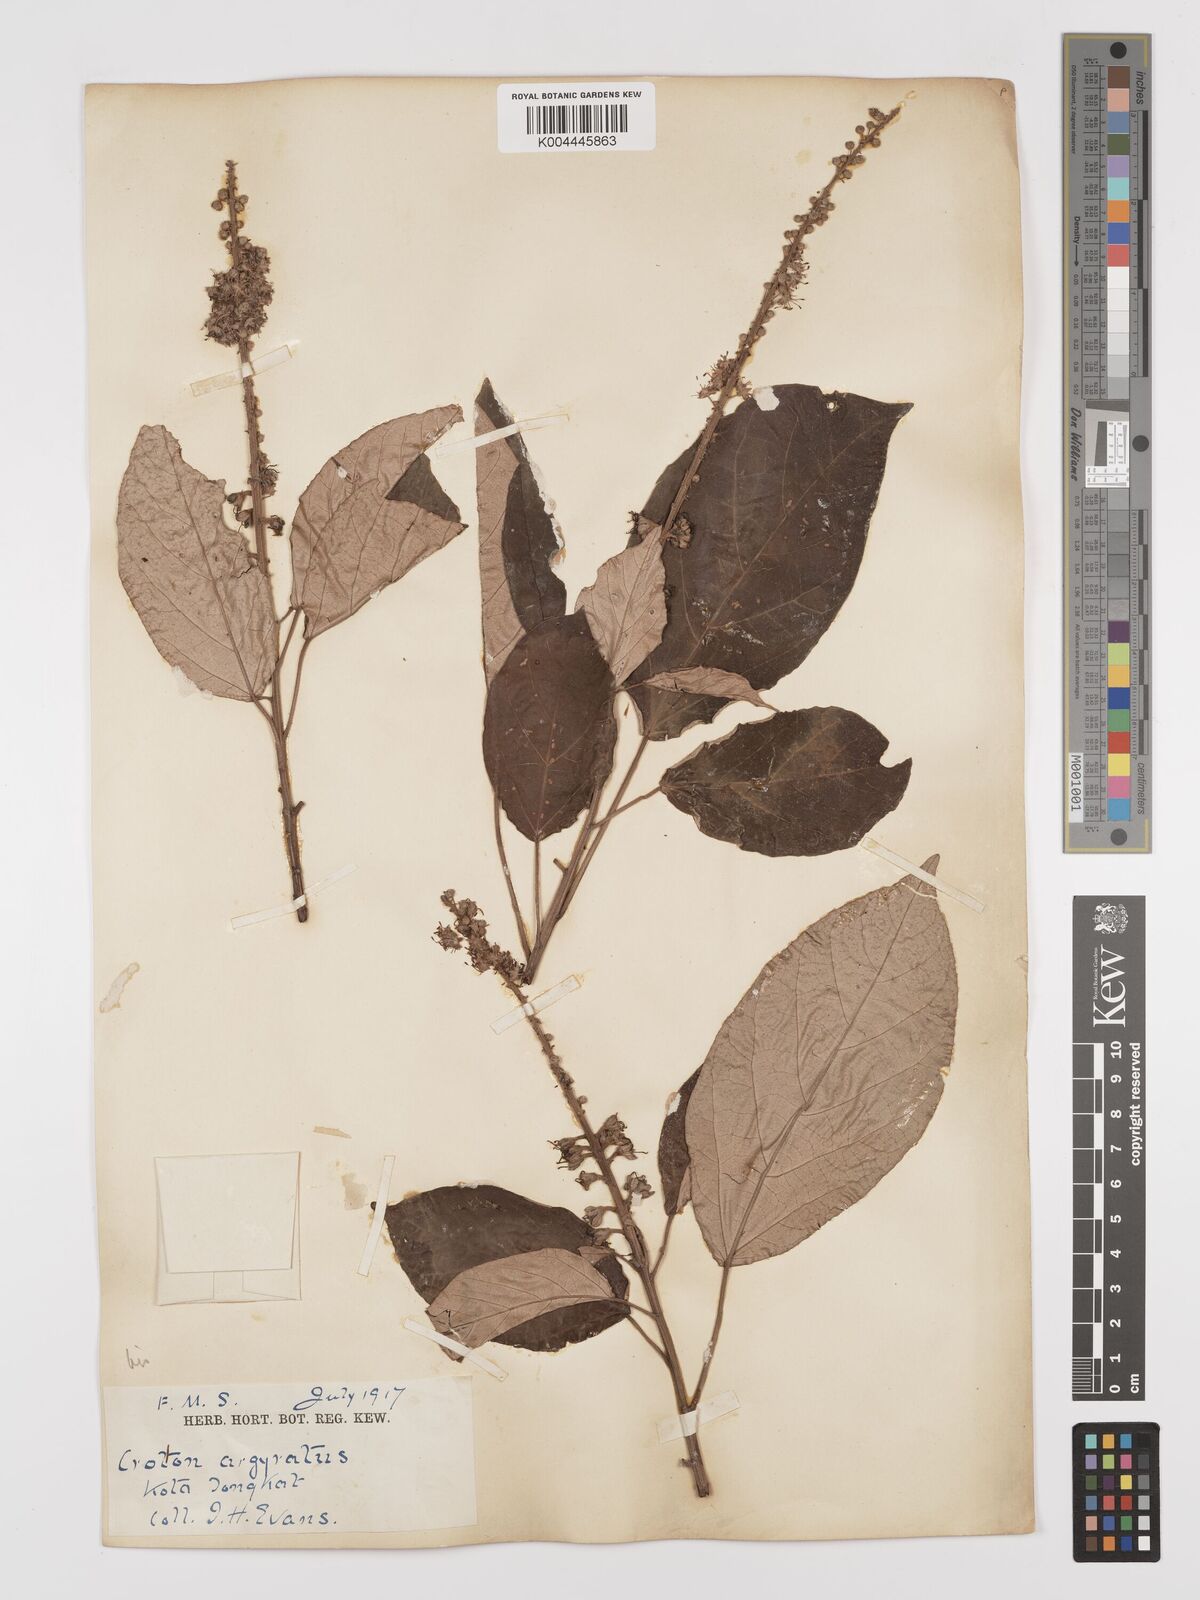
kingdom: Plantae
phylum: Tracheophyta
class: Magnoliopsida
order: Malpighiales
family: Euphorbiaceae
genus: Croton
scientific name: Croton argyratus
